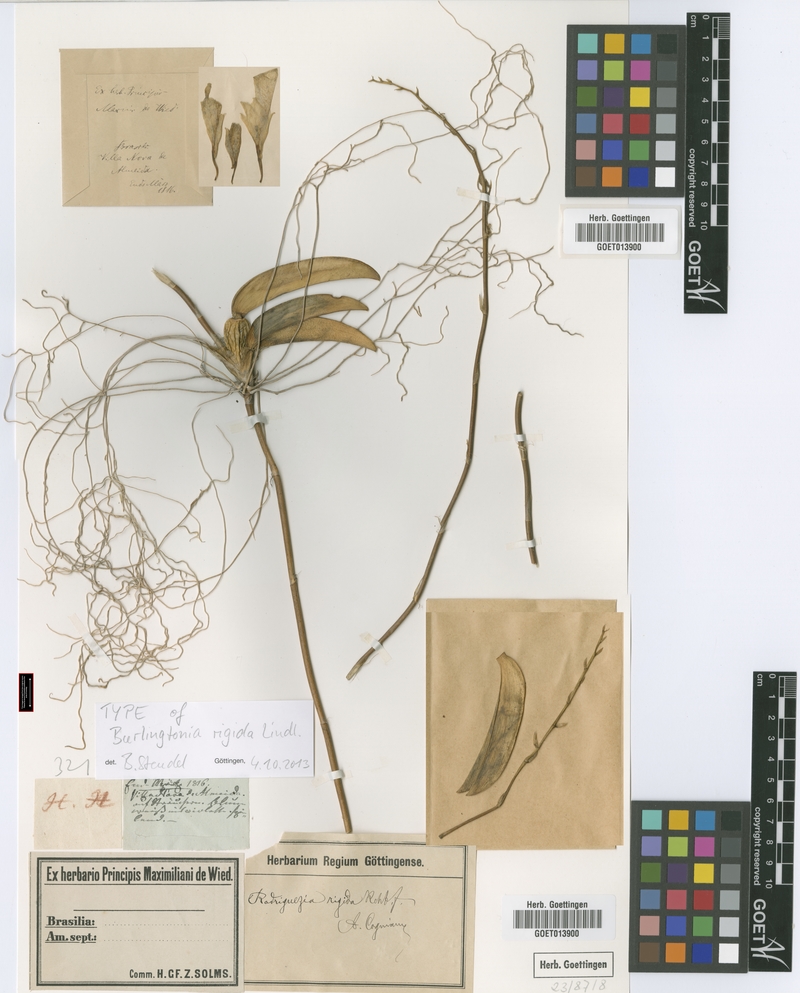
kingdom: Plantae
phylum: Tracheophyta
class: Liliopsida
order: Asparagales
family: Orchidaceae
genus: Rodriguezia
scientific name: Rodriguezia rigida
